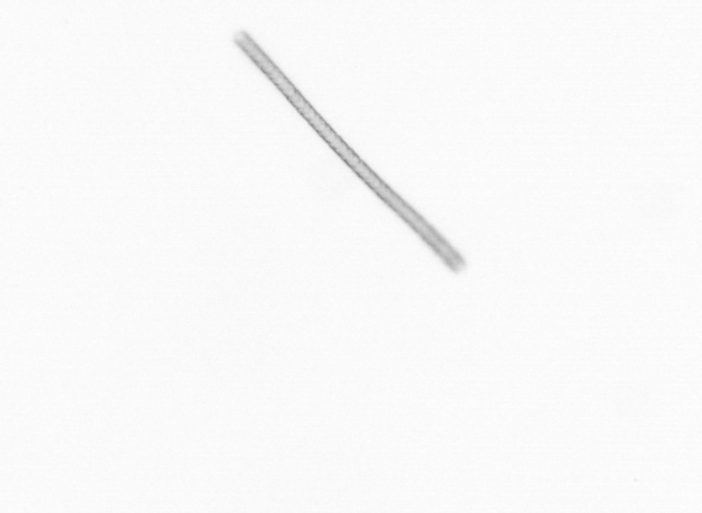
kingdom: Chromista
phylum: Ochrophyta
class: Bacillariophyceae
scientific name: Bacillariophyceae
